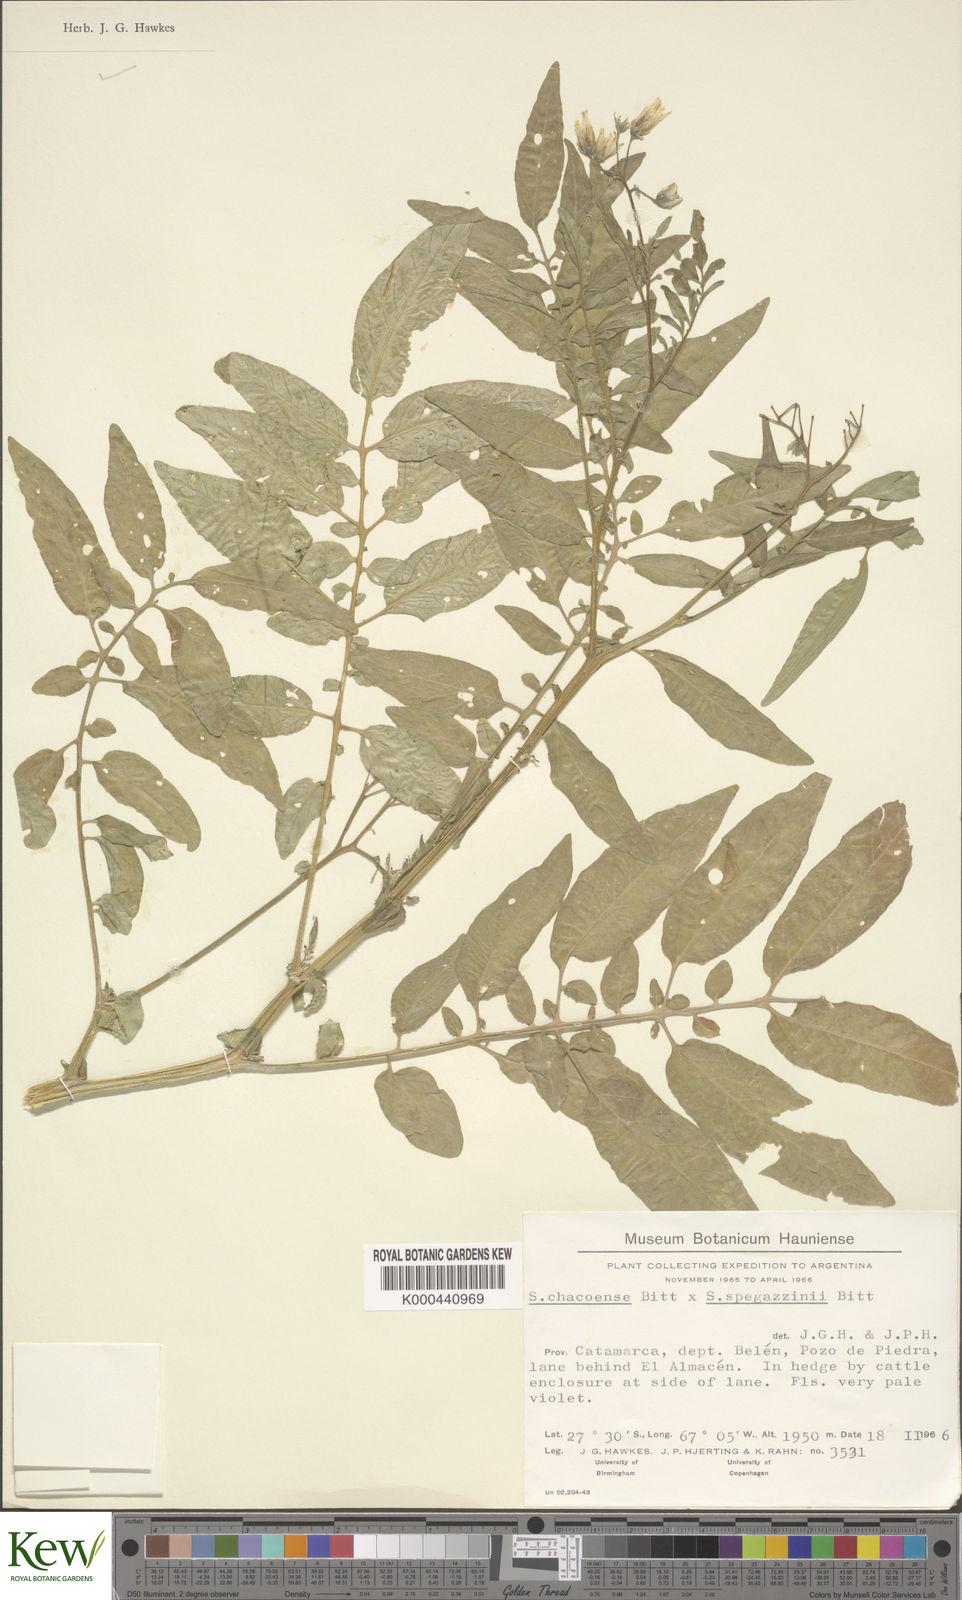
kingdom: Plantae
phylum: Tracheophyta
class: Magnoliopsida
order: Solanales
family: Solanaceae
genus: Solanum
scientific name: Solanum chacoense
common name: Chaco potato
